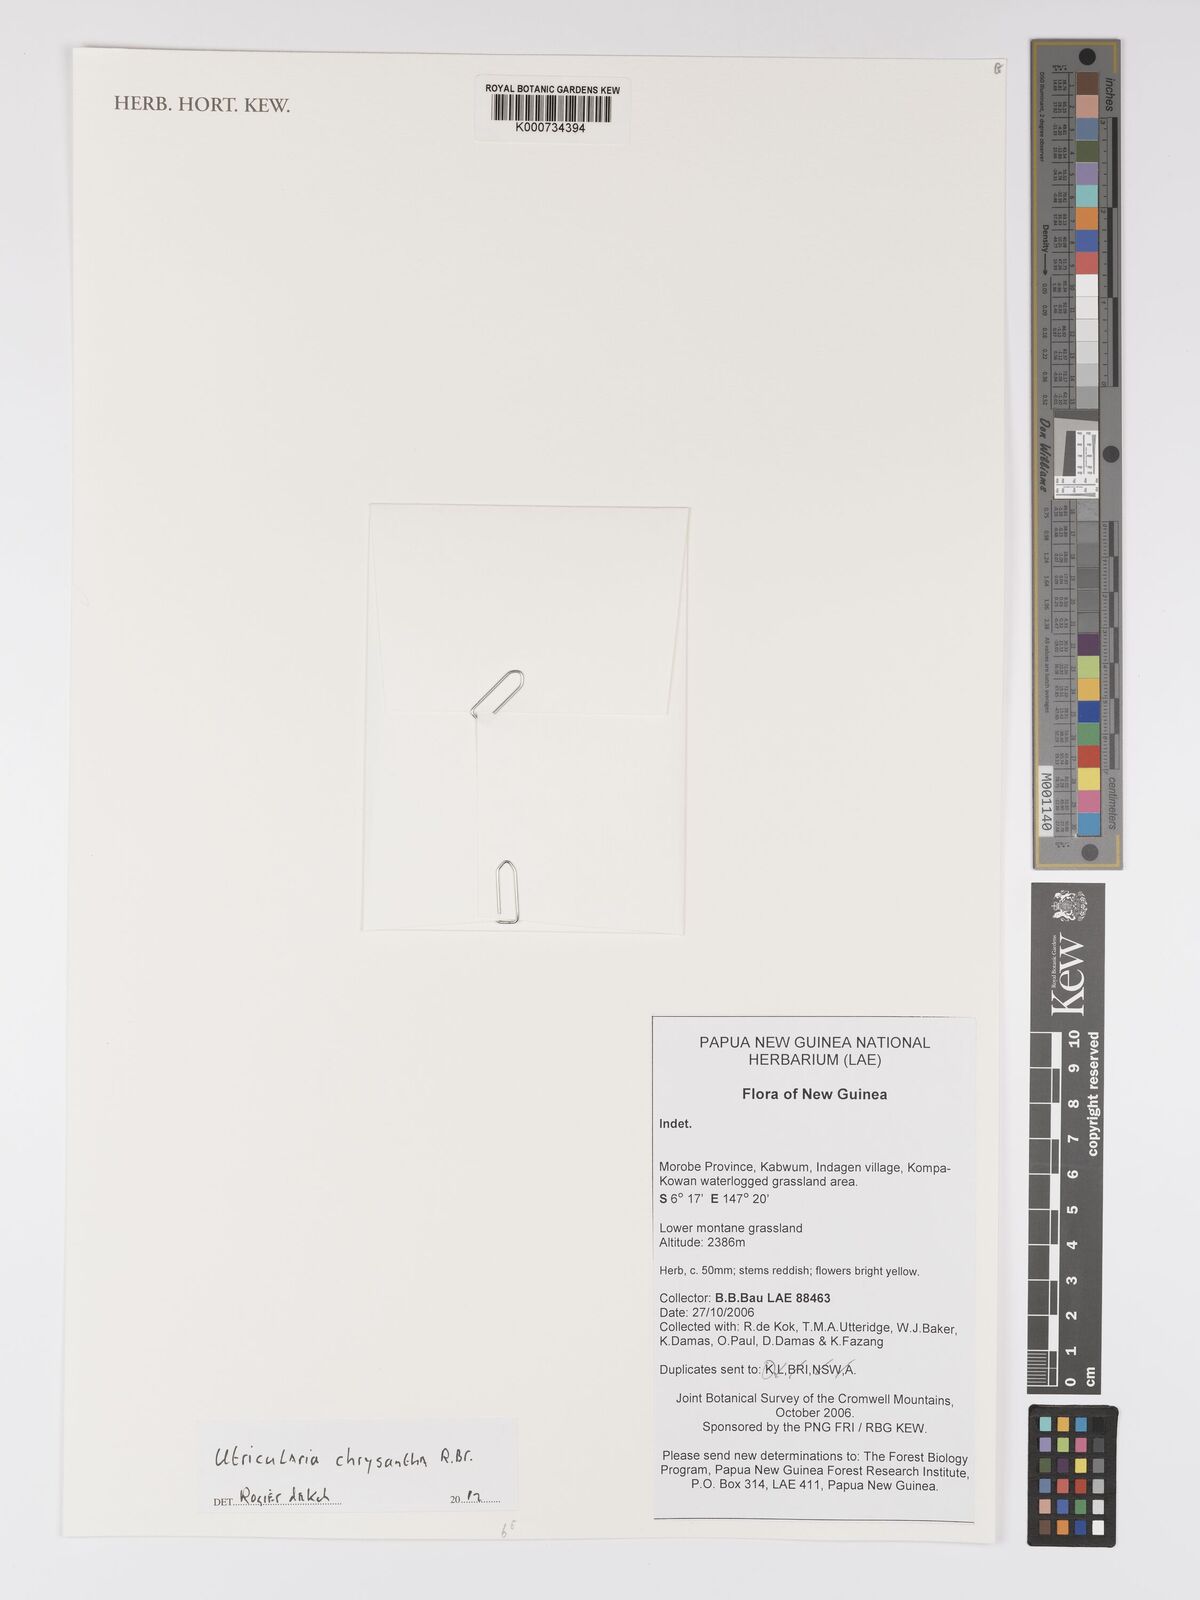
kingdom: Plantae
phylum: Tracheophyta
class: Magnoliopsida
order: Lamiales
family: Lentibulariaceae
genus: Utricularia
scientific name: Utricularia chrysantha
